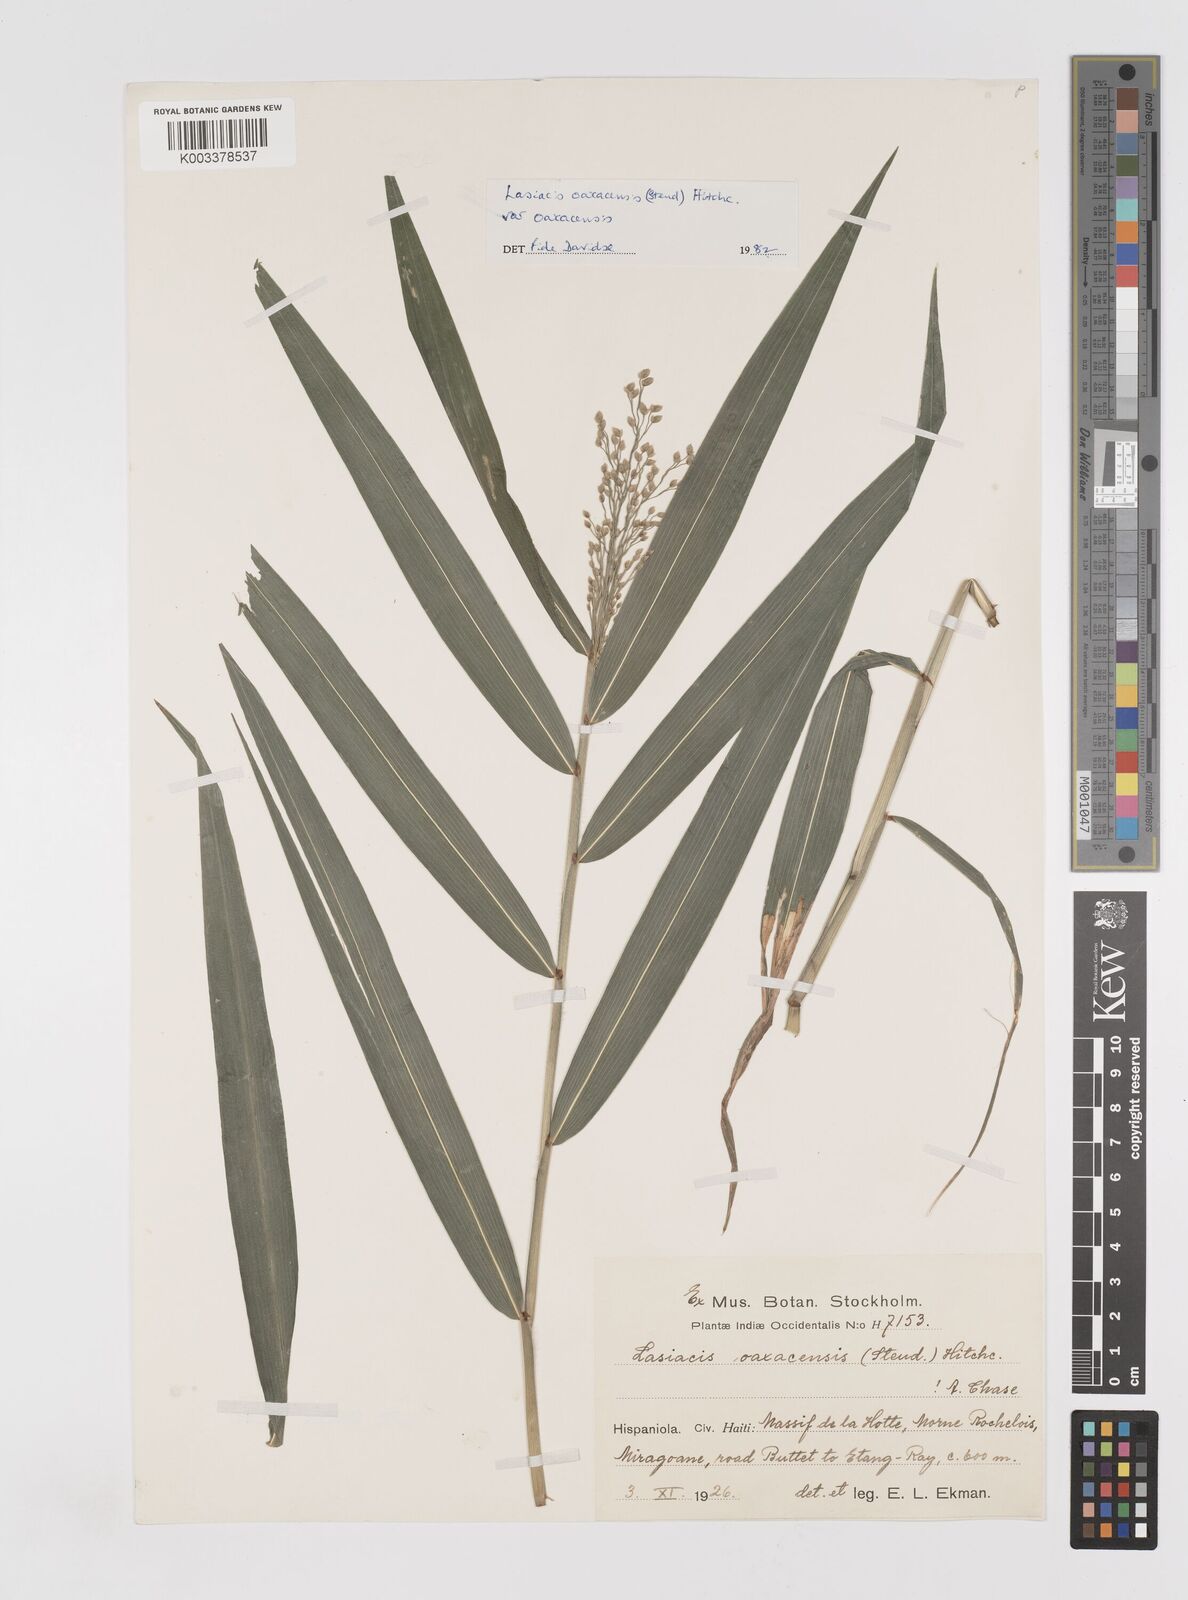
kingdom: Plantae
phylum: Tracheophyta
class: Liliopsida
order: Poales
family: Poaceae
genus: Lasiacis
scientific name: Lasiacis oaxacensis
